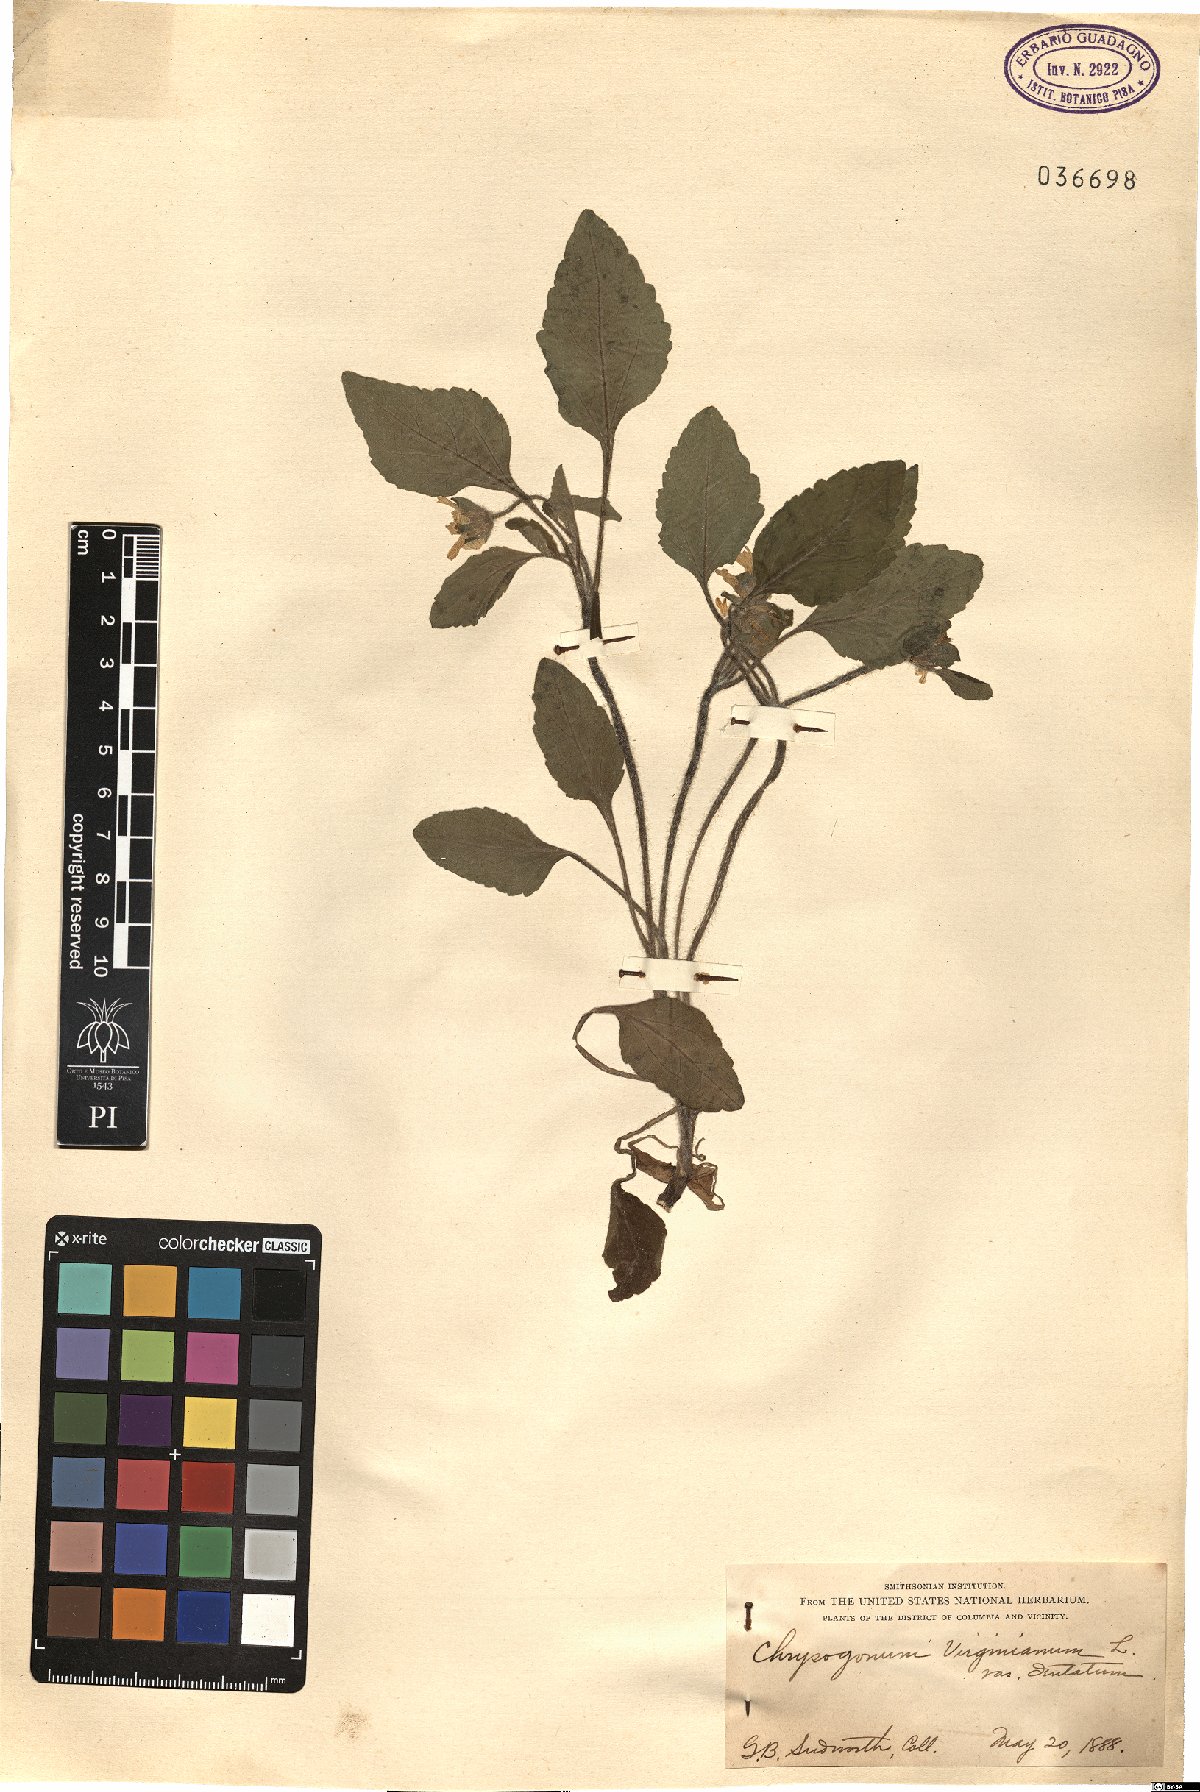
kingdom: Plantae
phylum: Tracheophyta
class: Magnoliopsida
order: Asterales
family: Asteraceae
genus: Chrysogonum
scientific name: Chrysogonum virginianum
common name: Golden-knee
